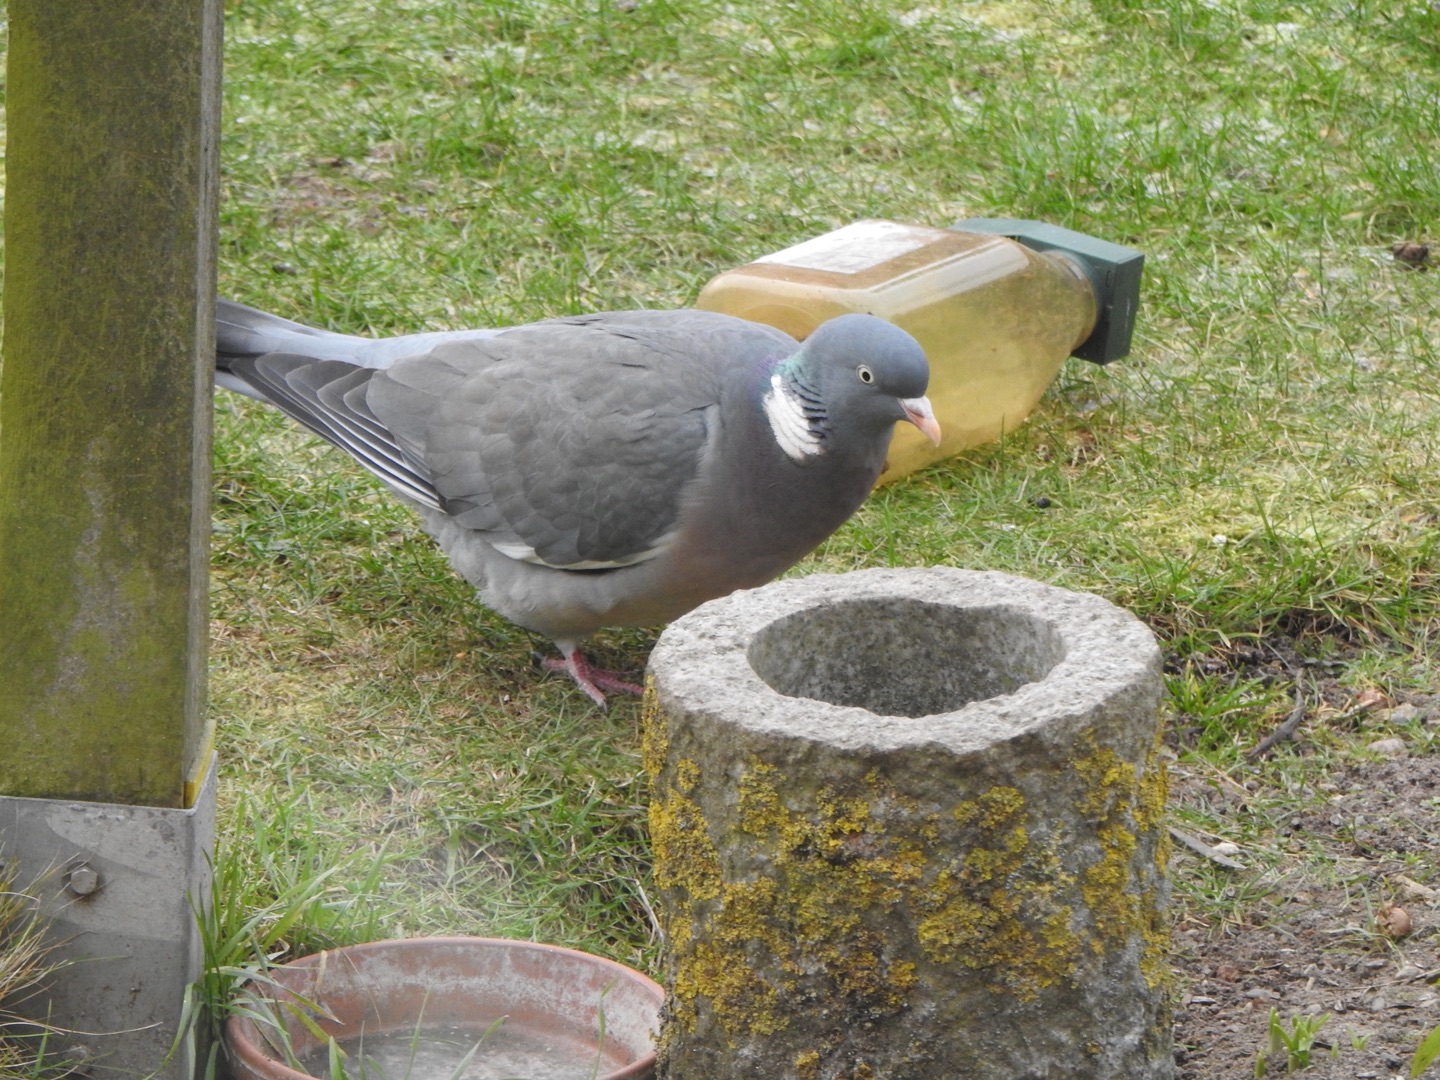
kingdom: Animalia
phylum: Chordata
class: Aves
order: Columbiformes
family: Columbidae
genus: Columba
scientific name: Columba palumbus
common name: Ringdue
